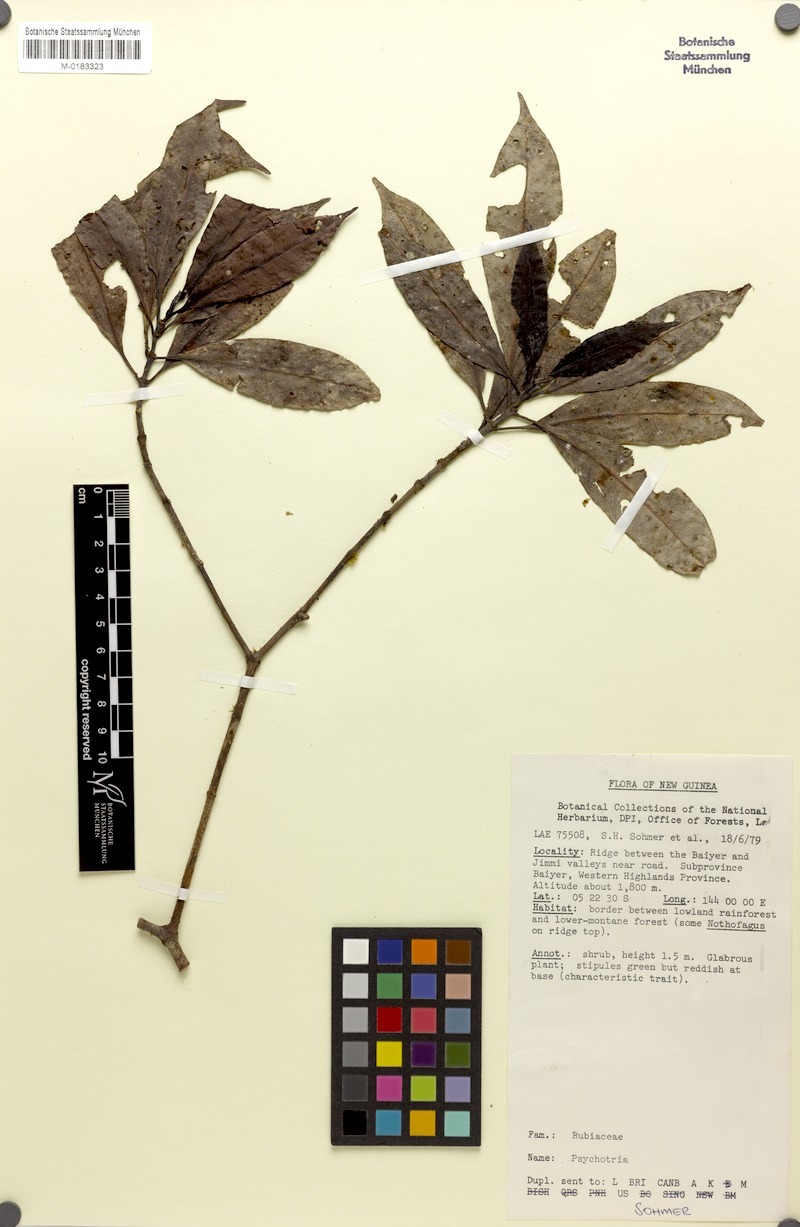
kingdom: Plantae
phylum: Tracheophyta
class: Magnoliopsida
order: Gentianales
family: Rubiaceae
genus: Psychotria
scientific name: Psychotria valetoniana
